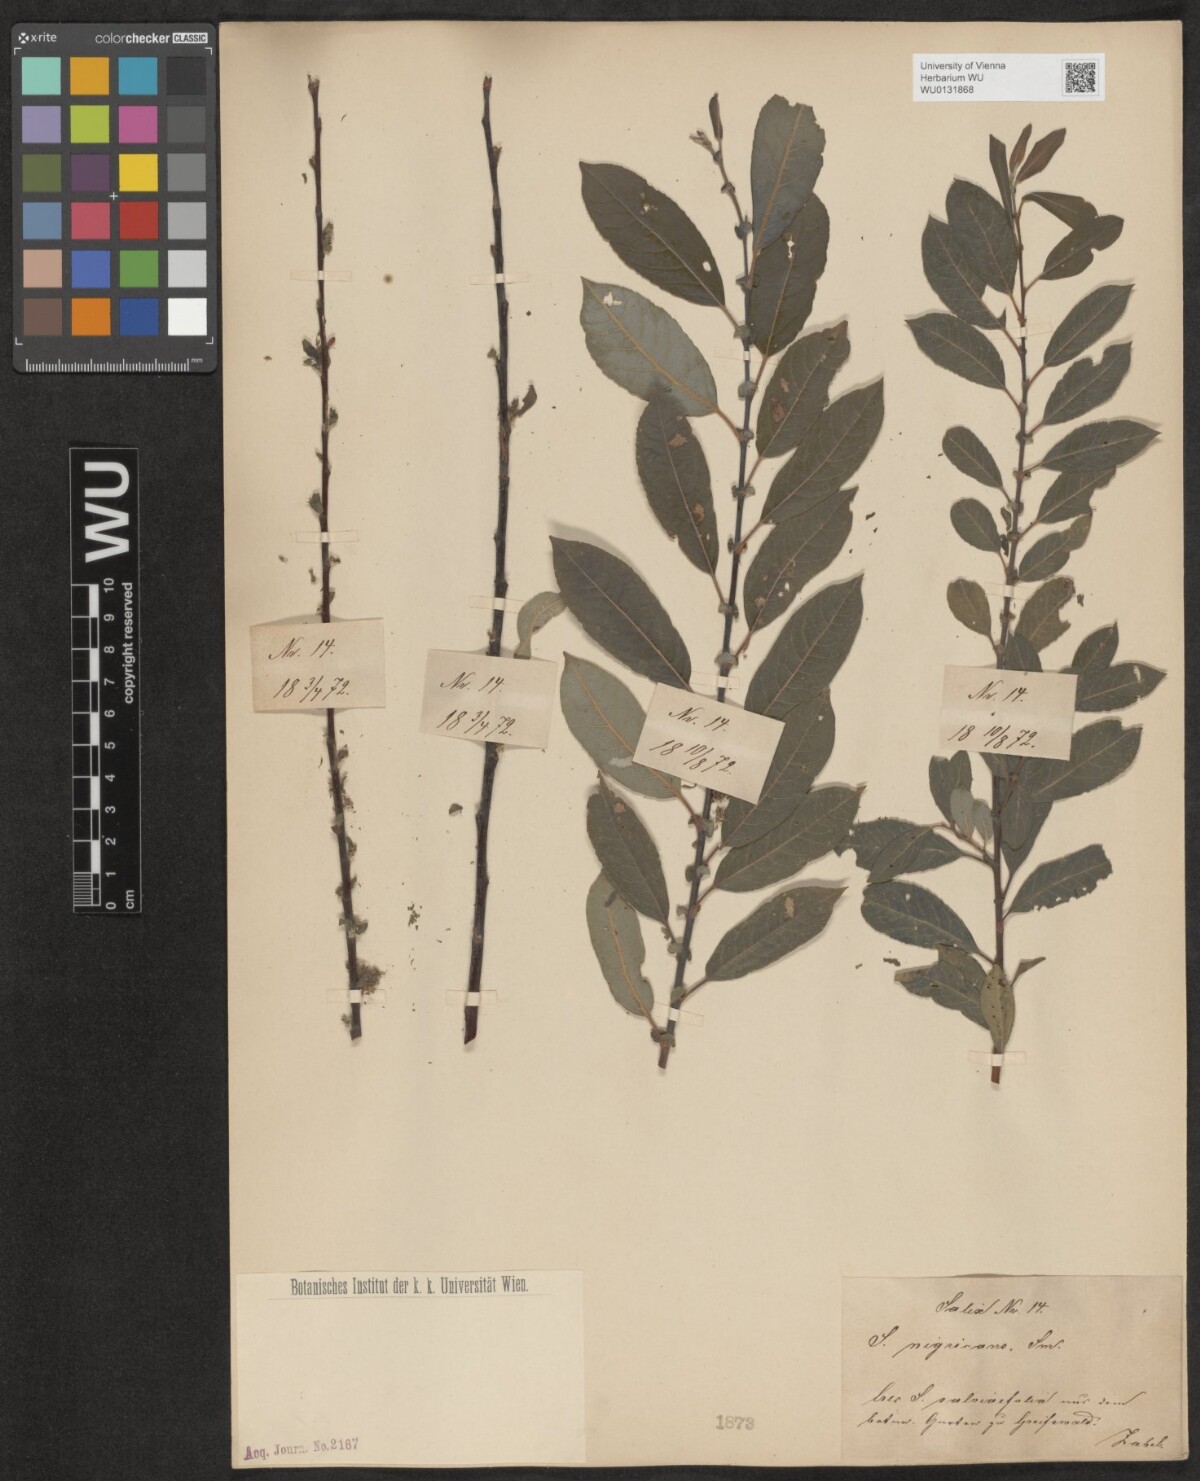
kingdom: Plantae
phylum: Tracheophyta
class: Magnoliopsida
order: Malpighiales
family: Salicaceae
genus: Salix
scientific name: Salix myrsinifolia
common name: Dark-leaved willow
